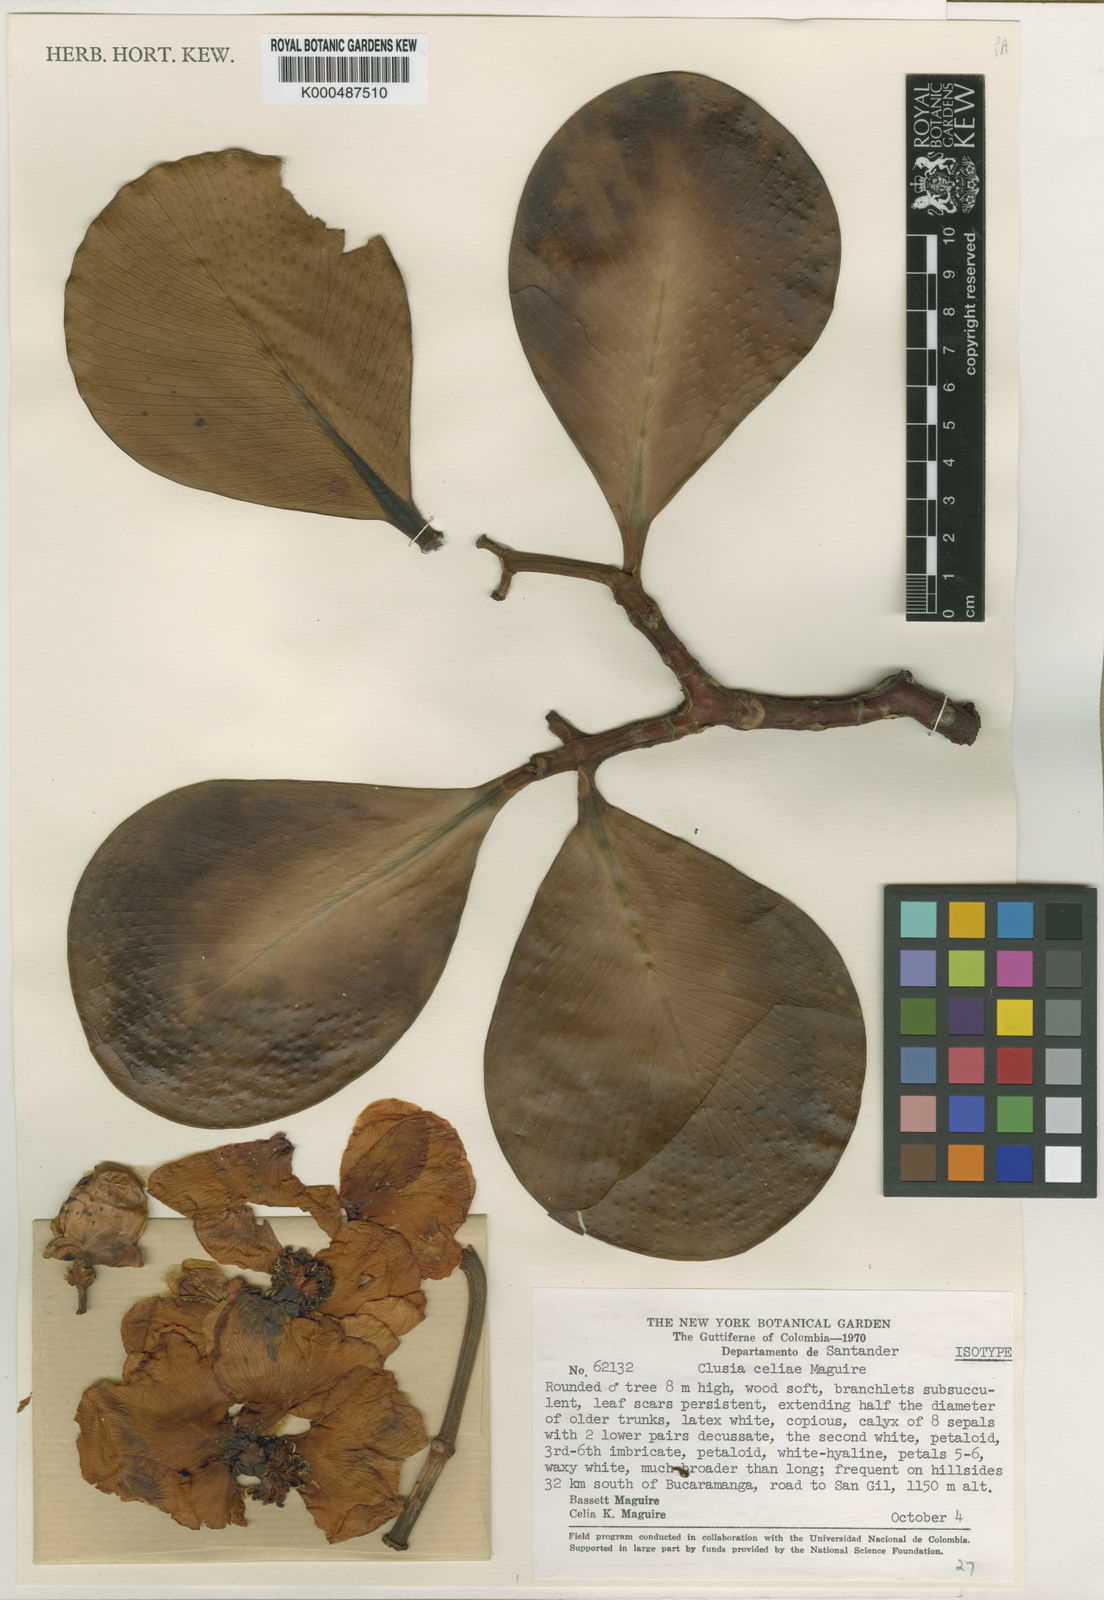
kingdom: Plantae
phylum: Tracheophyta
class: Magnoliopsida
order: Malpighiales
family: Clusiaceae
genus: Clusia
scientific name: Clusia celiae
